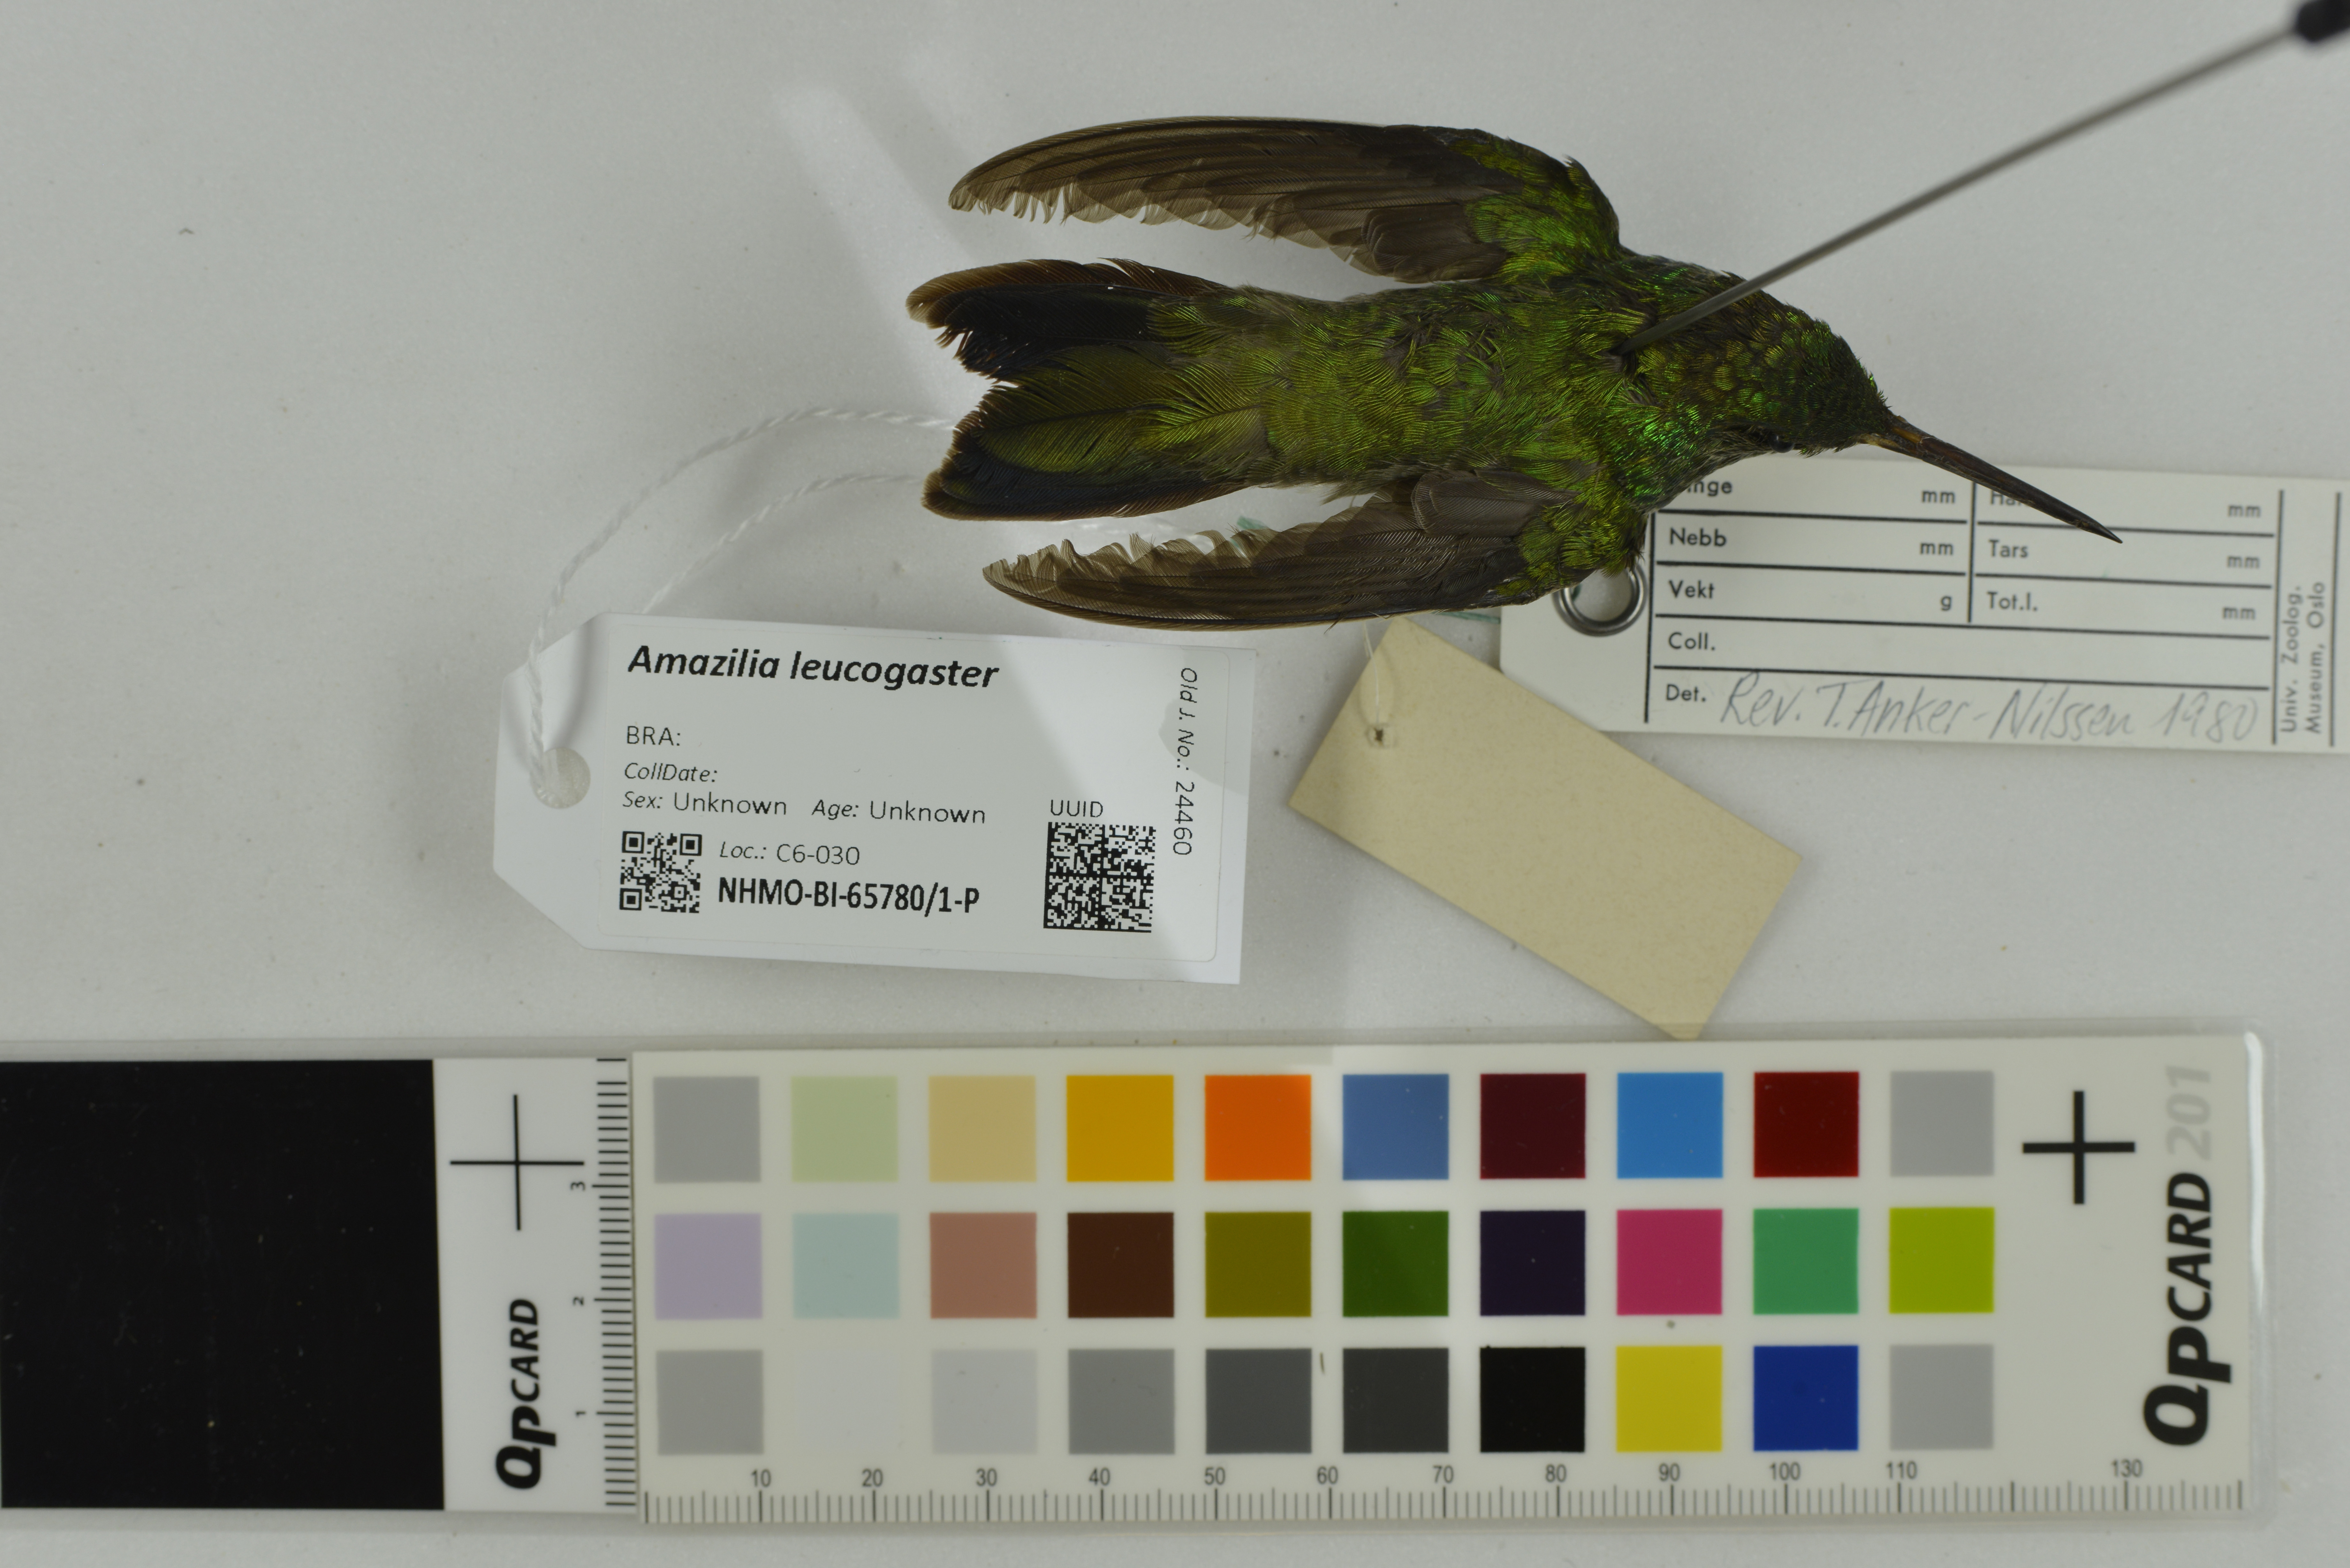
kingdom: Animalia
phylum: Chordata
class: Aves
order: Apodiformes
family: Trochilidae
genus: Chrysuronia
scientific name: Chrysuronia leucogaster
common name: Plain-bellied emerald
